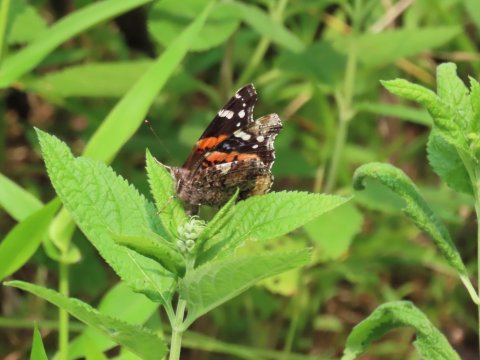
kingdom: Animalia
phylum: Arthropoda
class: Insecta
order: Lepidoptera
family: Nymphalidae
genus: Vanessa
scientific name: Vanessa atalanta
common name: Red Admiral
